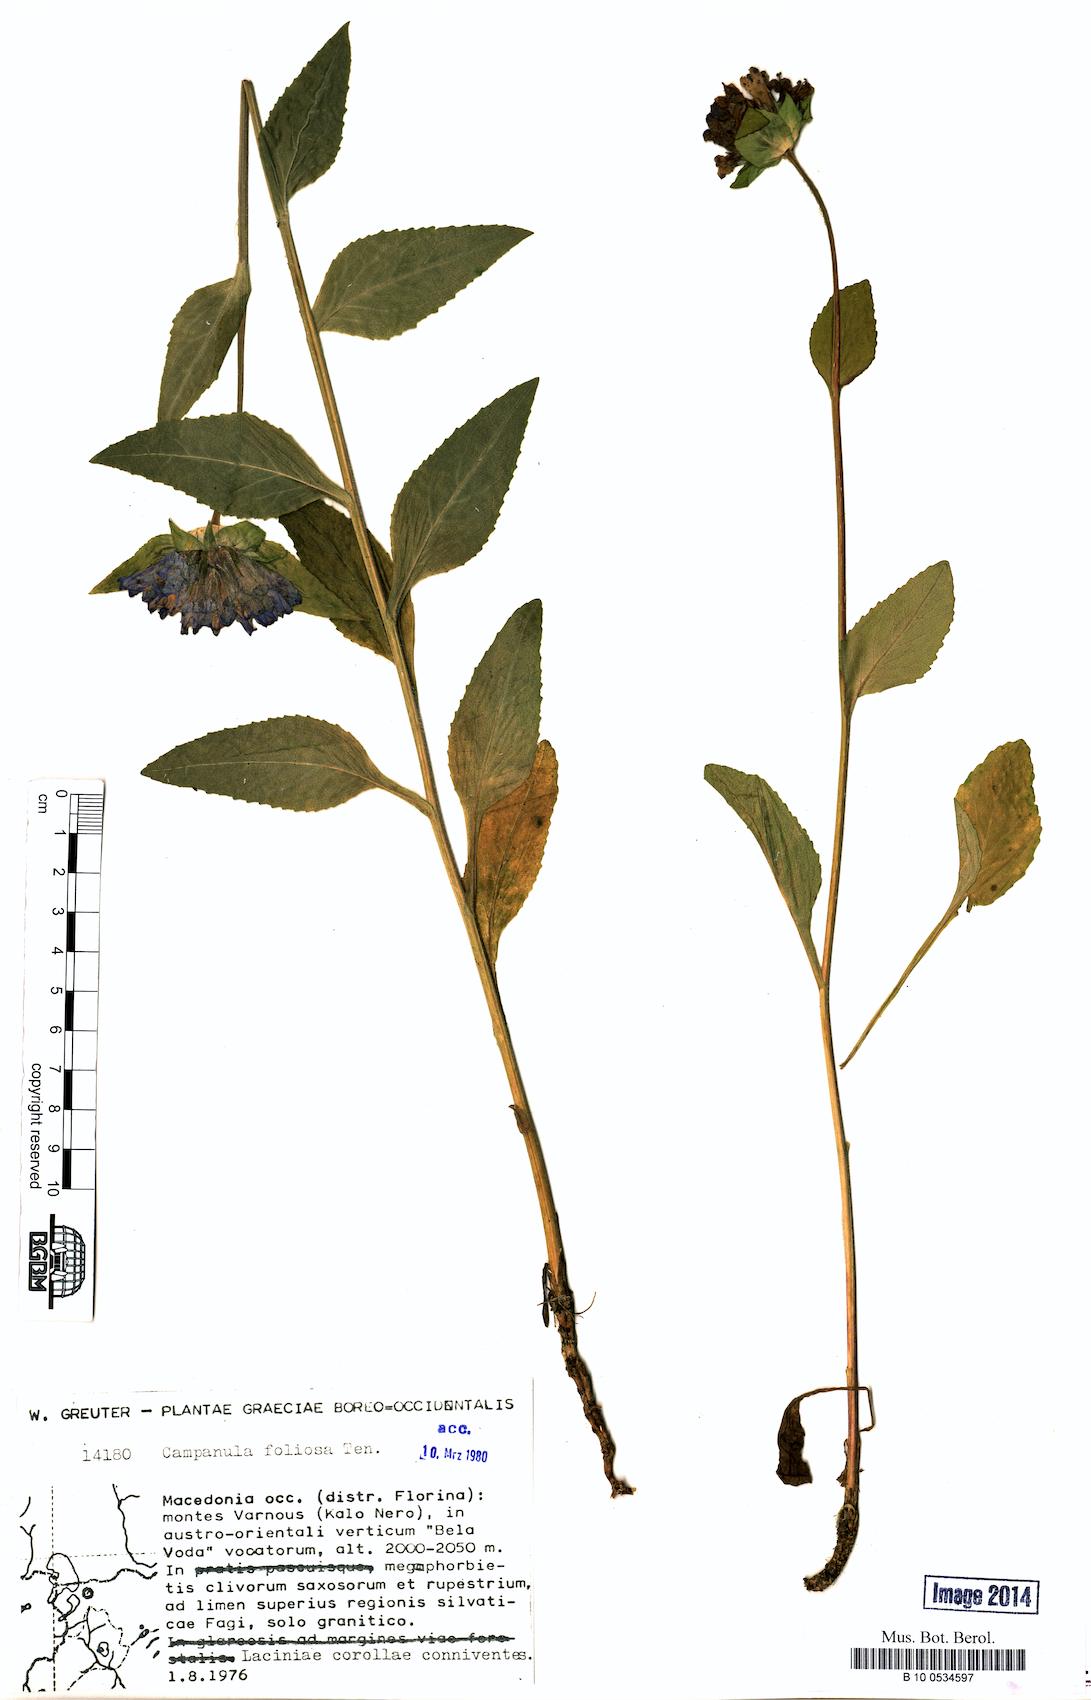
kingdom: Plantae
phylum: Tracheophyta
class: Magnoliopsida
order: Asterales
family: Campanulaceae
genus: Campanula
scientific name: Campanula foliosa
